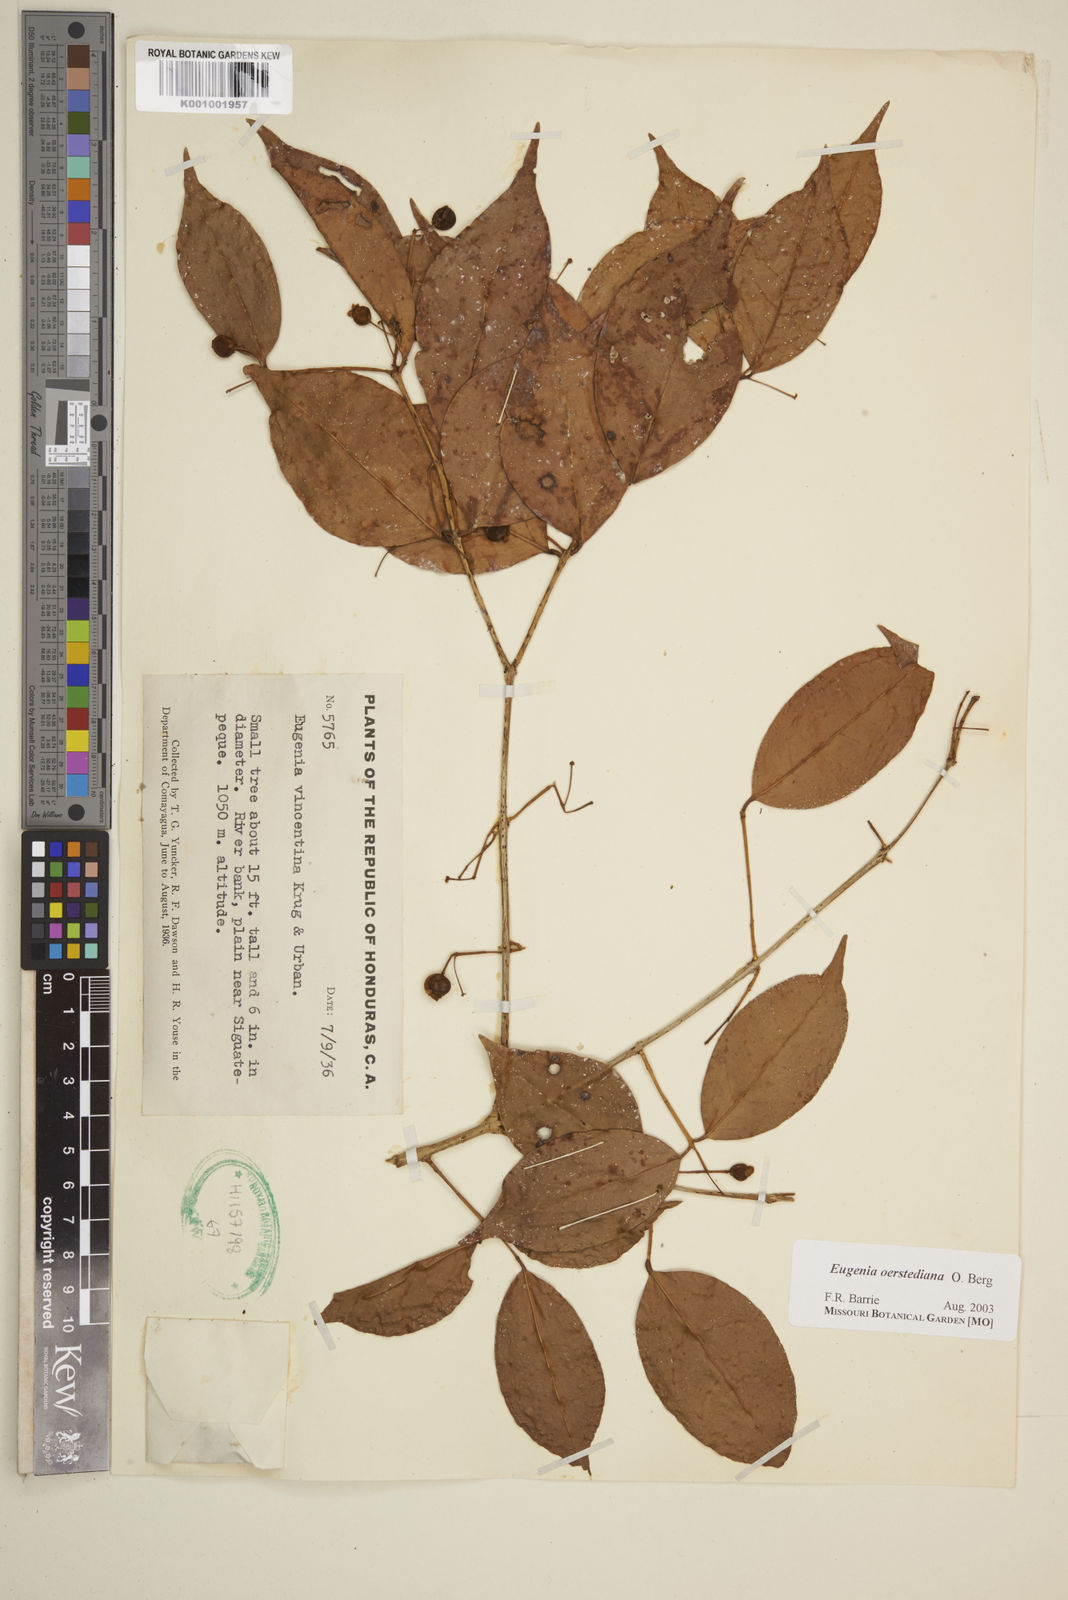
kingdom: Plantae
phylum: Tracheophyta
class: Magnoliopsida
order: Myrtales
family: Myrtaceae
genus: Eugenia
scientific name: Eugenia oerstediana
